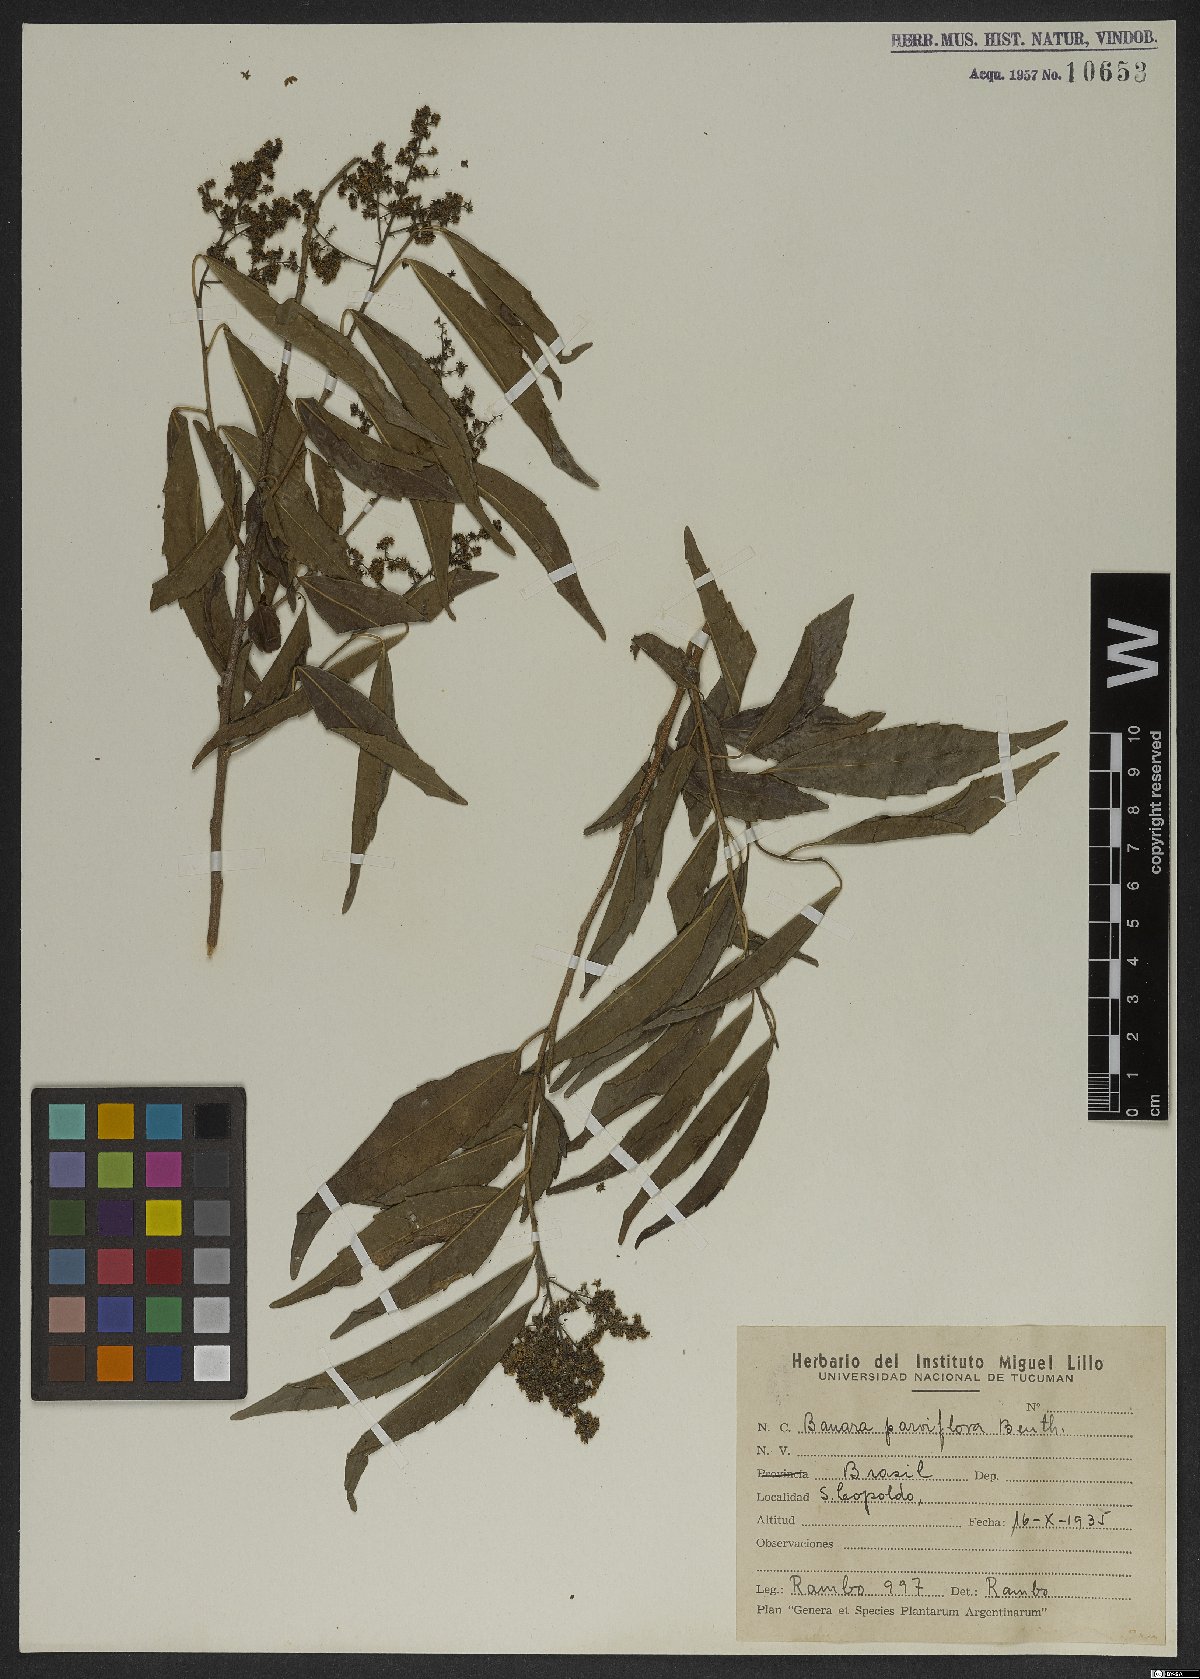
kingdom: Plantae
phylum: Tracheophyta
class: Magnoliopsida
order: Malpighiales
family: Salicaceae
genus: Banara
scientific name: Banara parviflora
